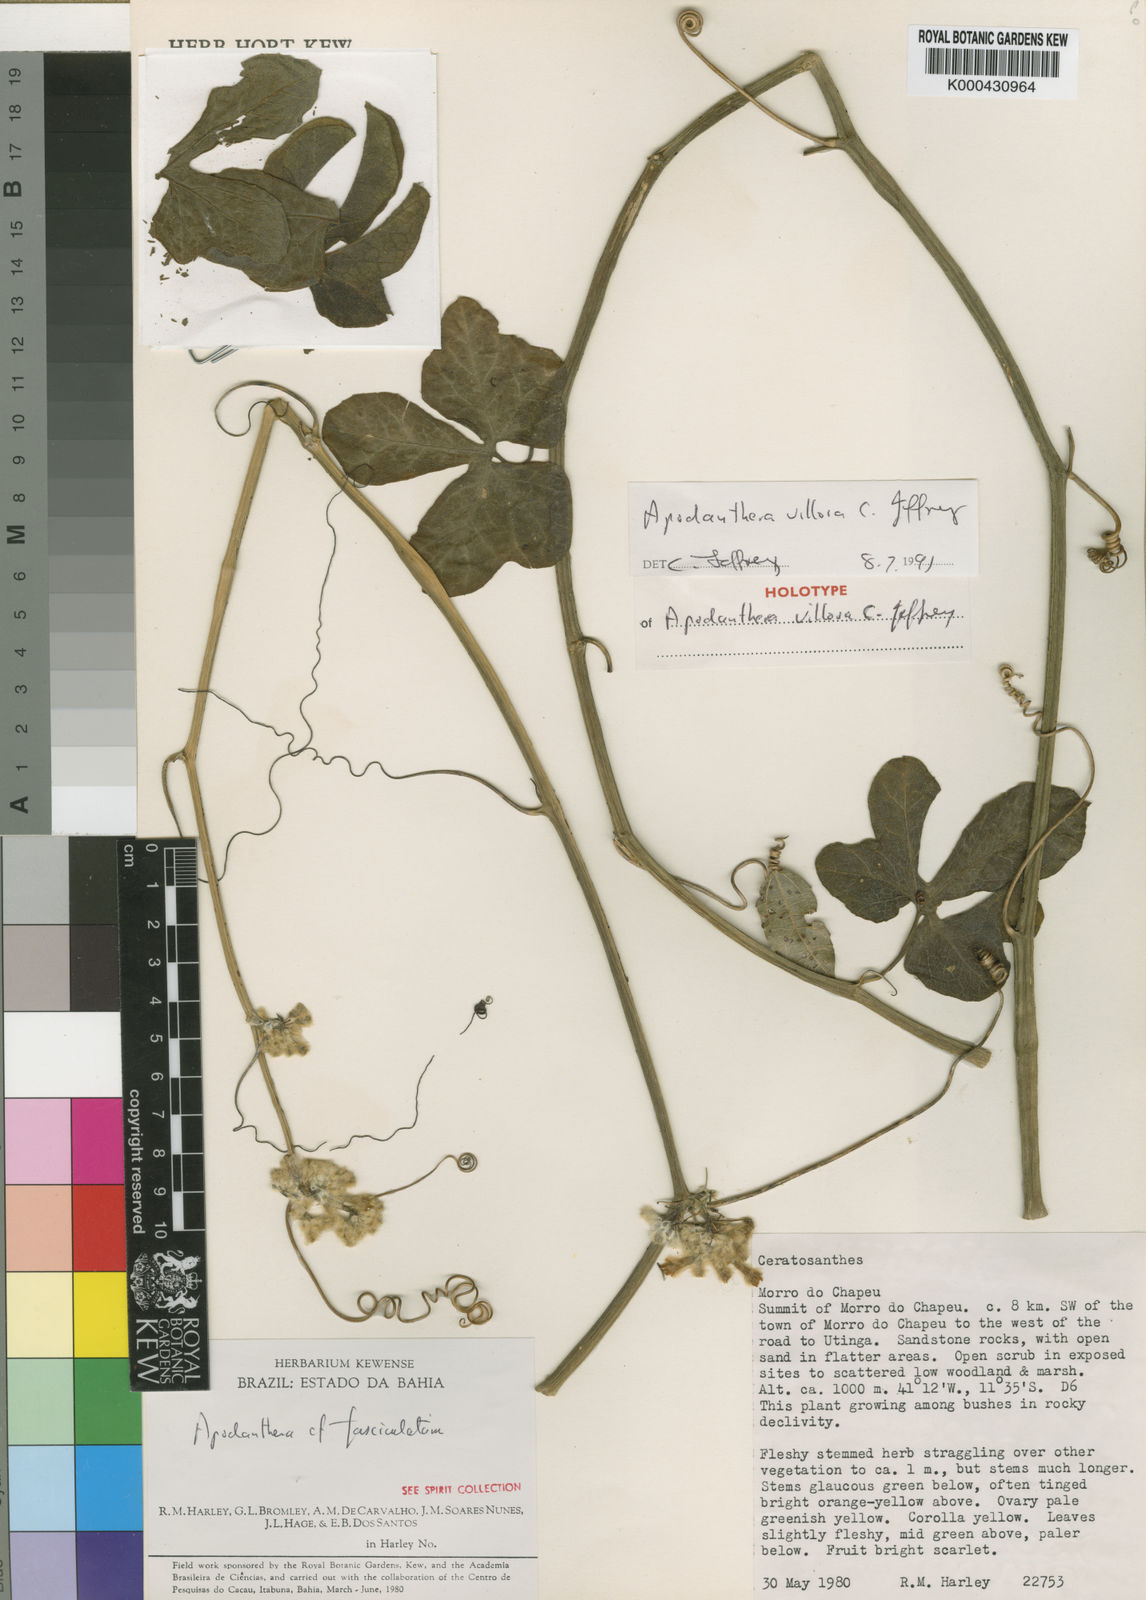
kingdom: Plantae
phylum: Tracheophyta
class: Magnoliopsida
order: Cucurbitales
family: Cucurbitaceae
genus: Apodanthera
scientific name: Apodanthera villosa
